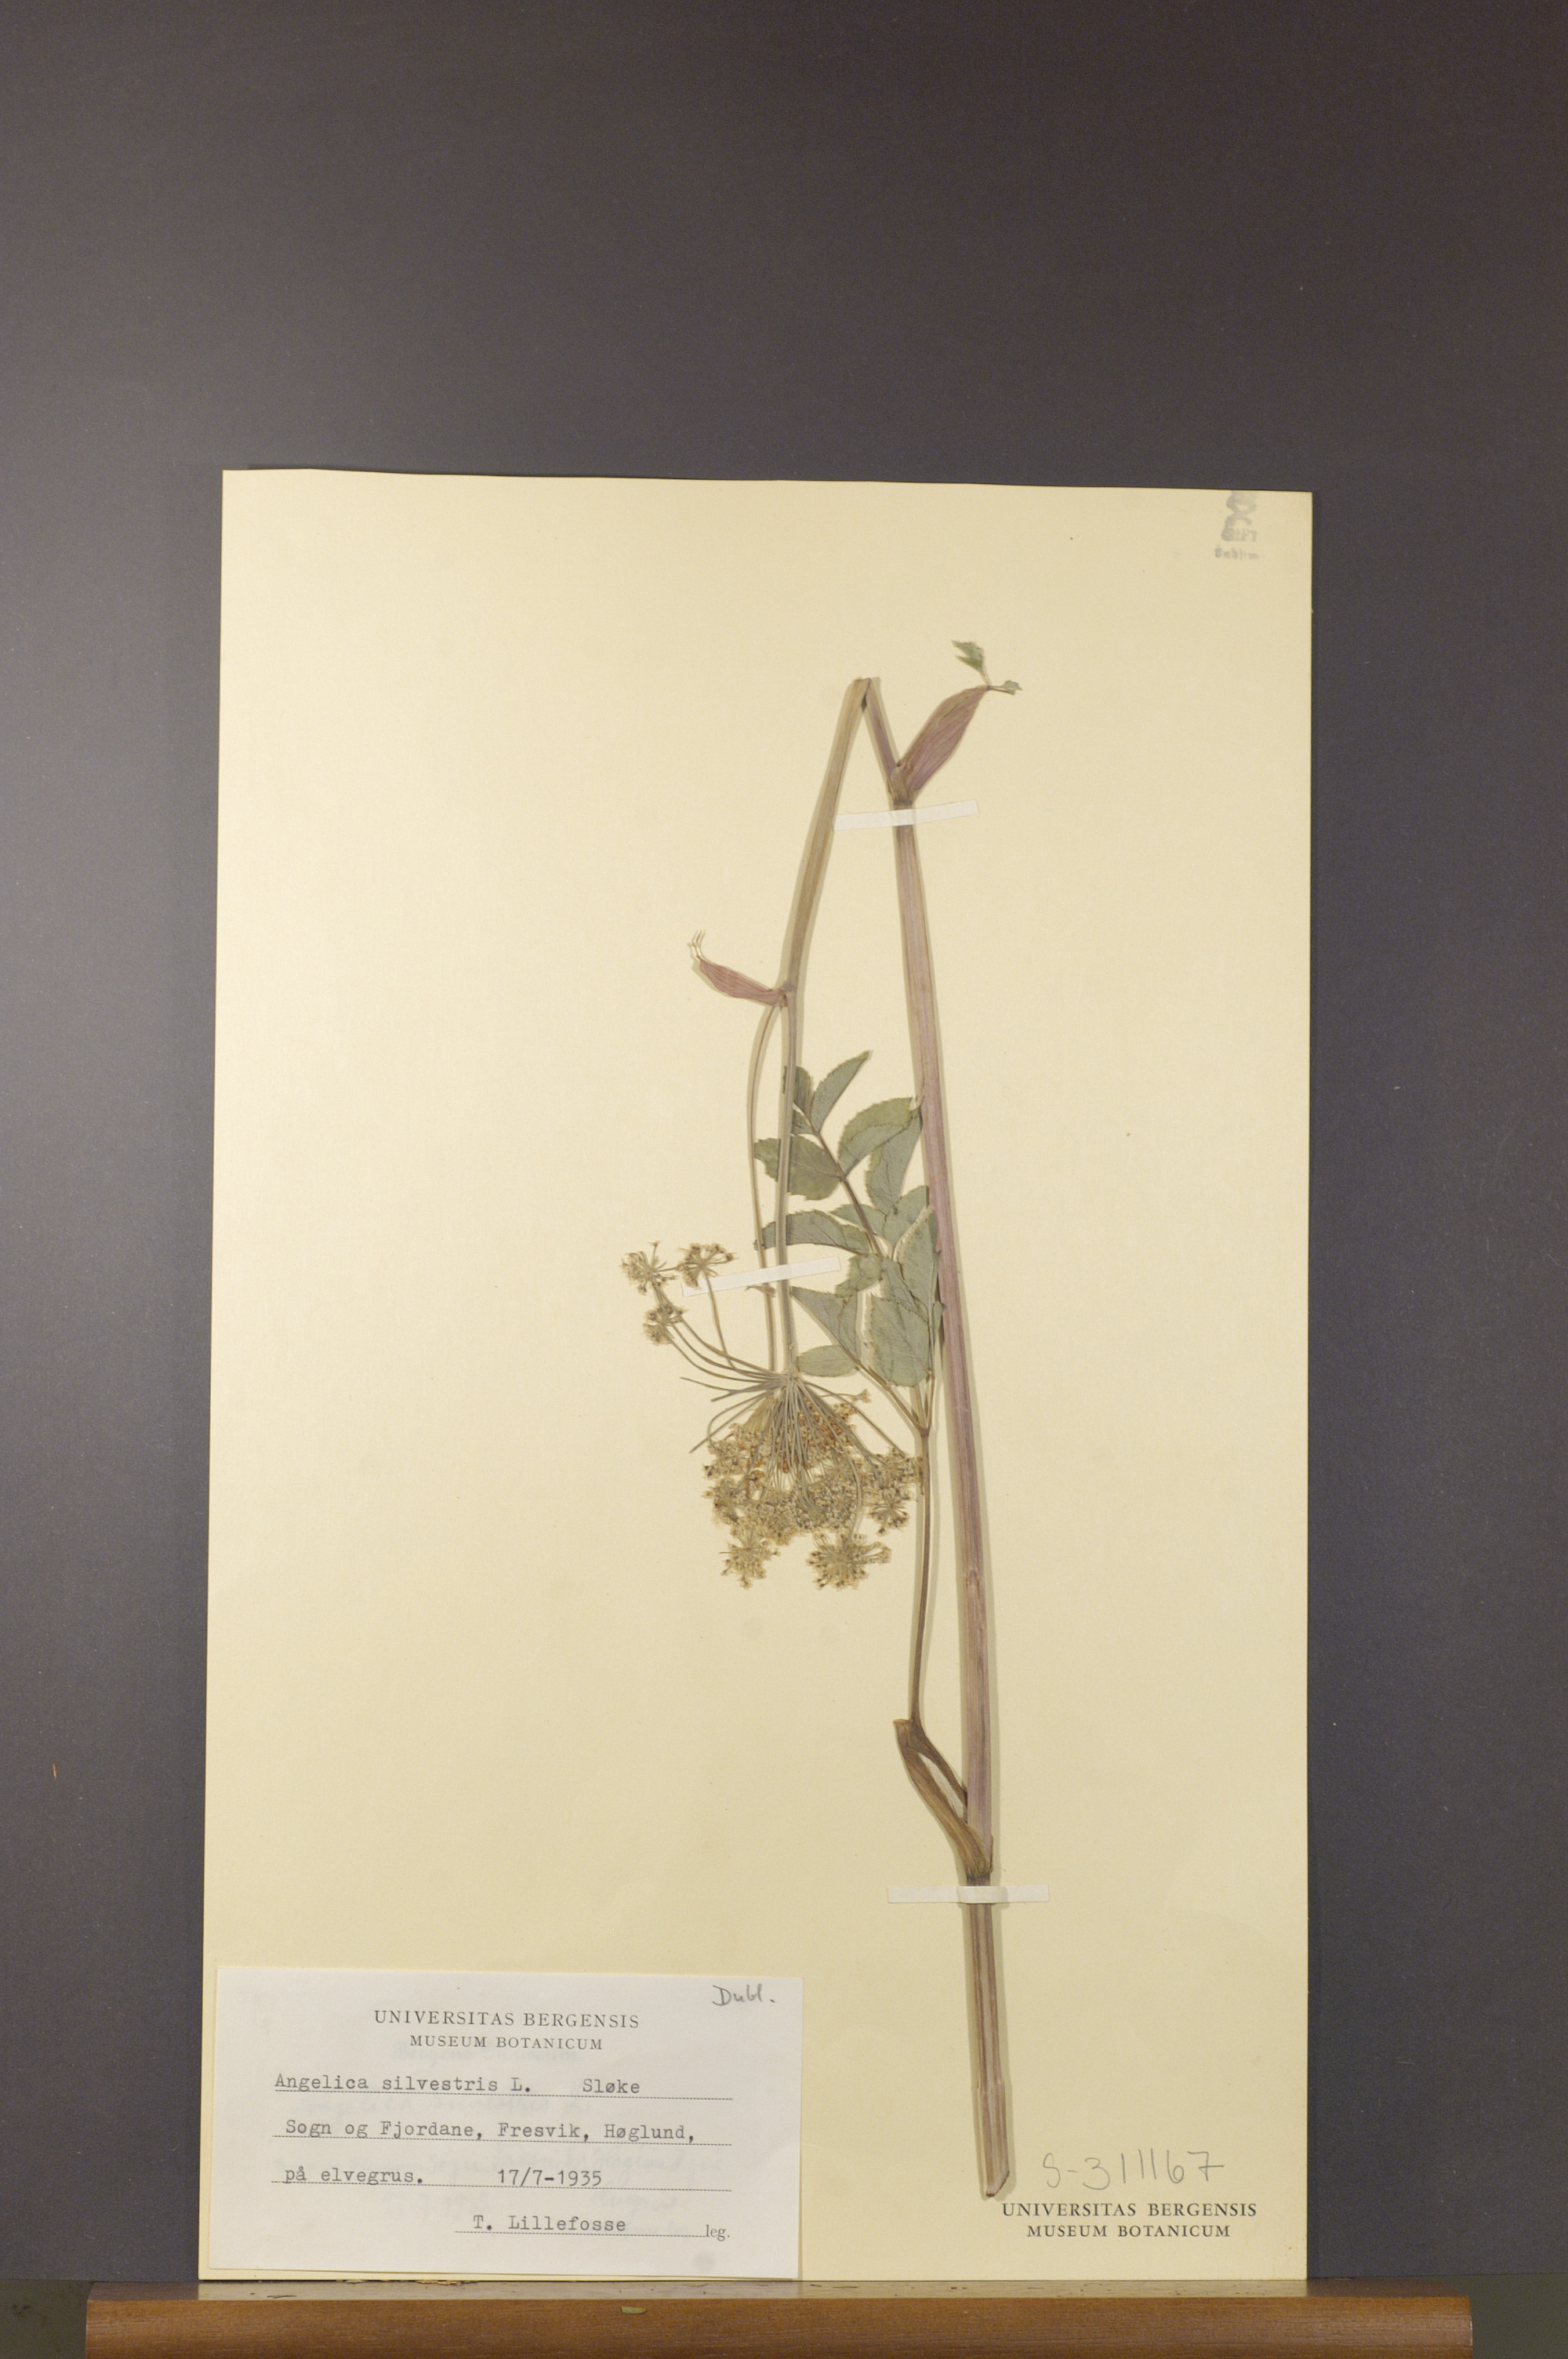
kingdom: Plantae
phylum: Tracheophyta
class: Magnoliopsida
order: Apiales
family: Apiaceae
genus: Angelica
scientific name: Angelica sylvestris
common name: Wild angelica
